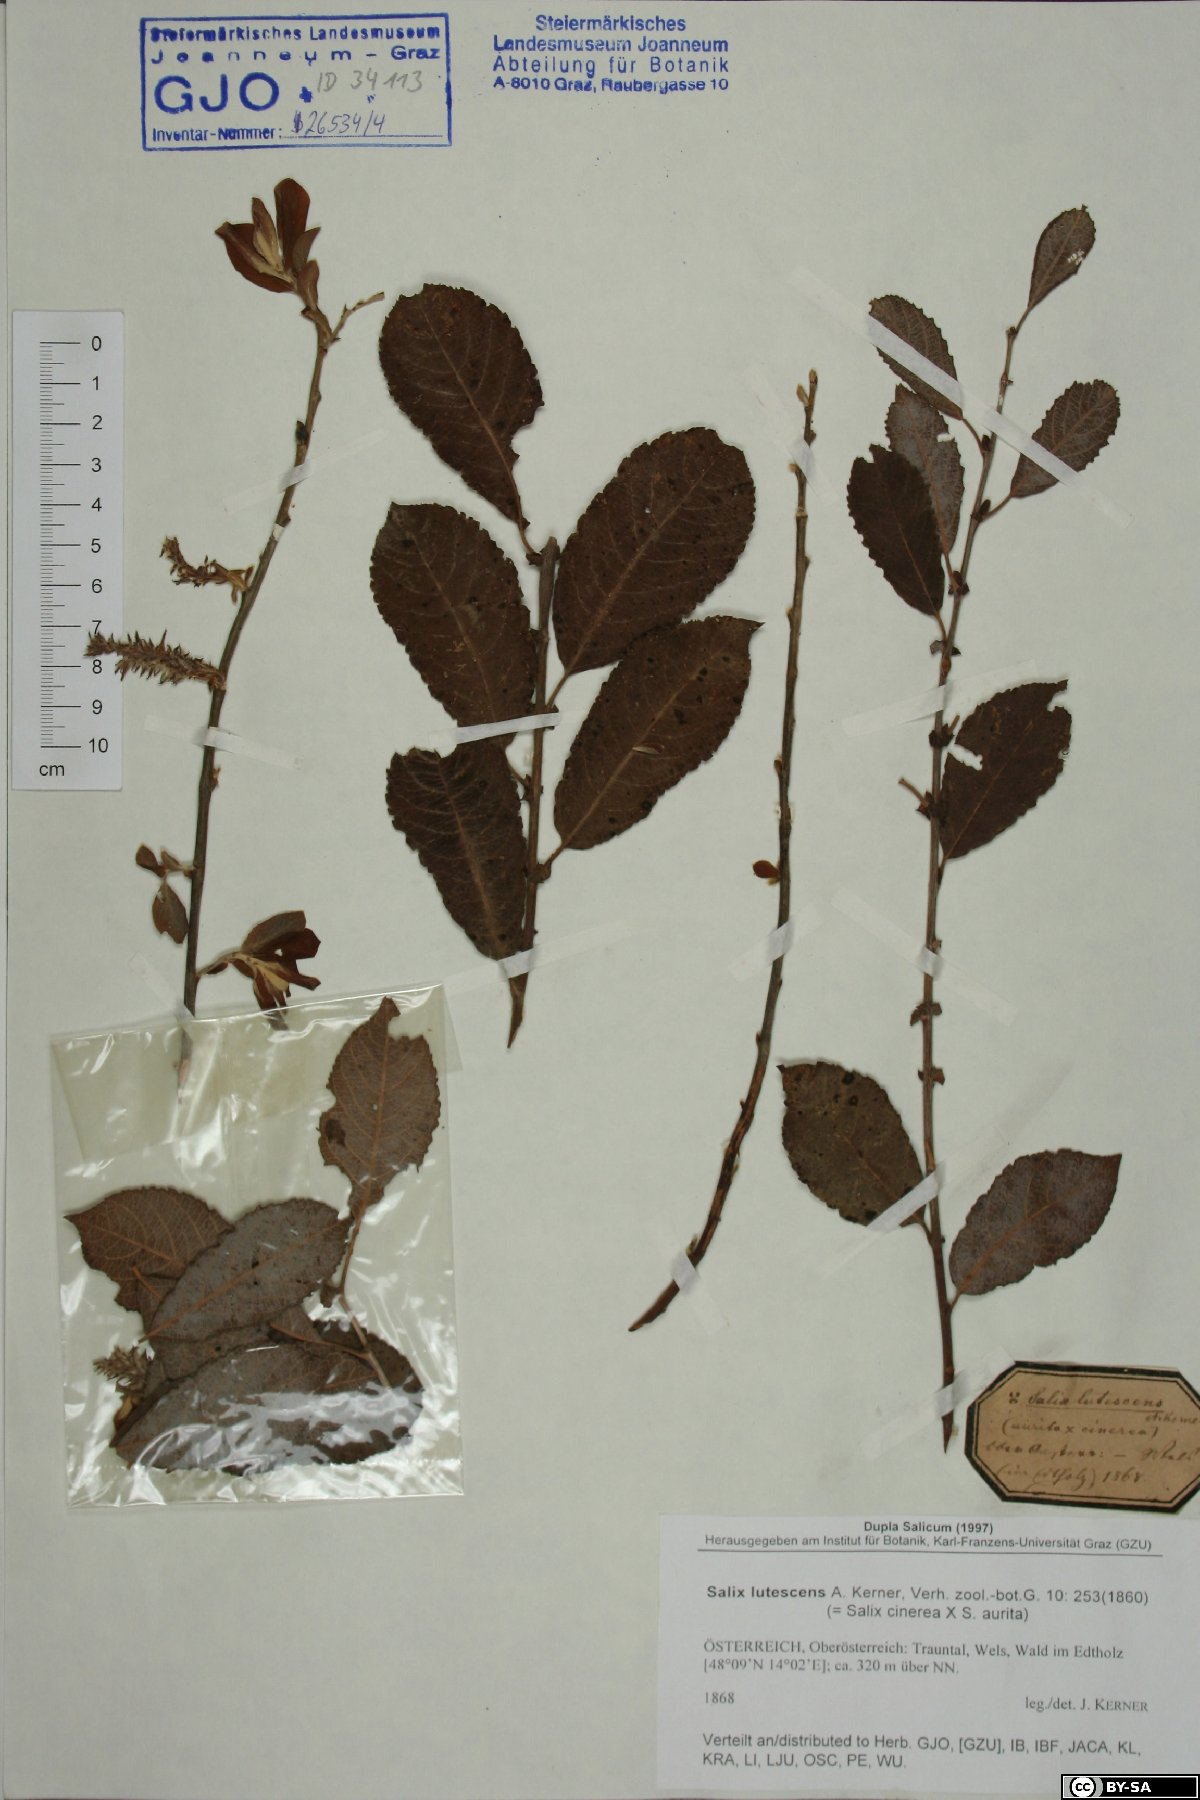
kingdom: Plantae
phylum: Tracheophyta
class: Magnoliopsida
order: Malpighiales
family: Salicaceae
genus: Salix
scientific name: Salix cinerea
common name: Common sallow
